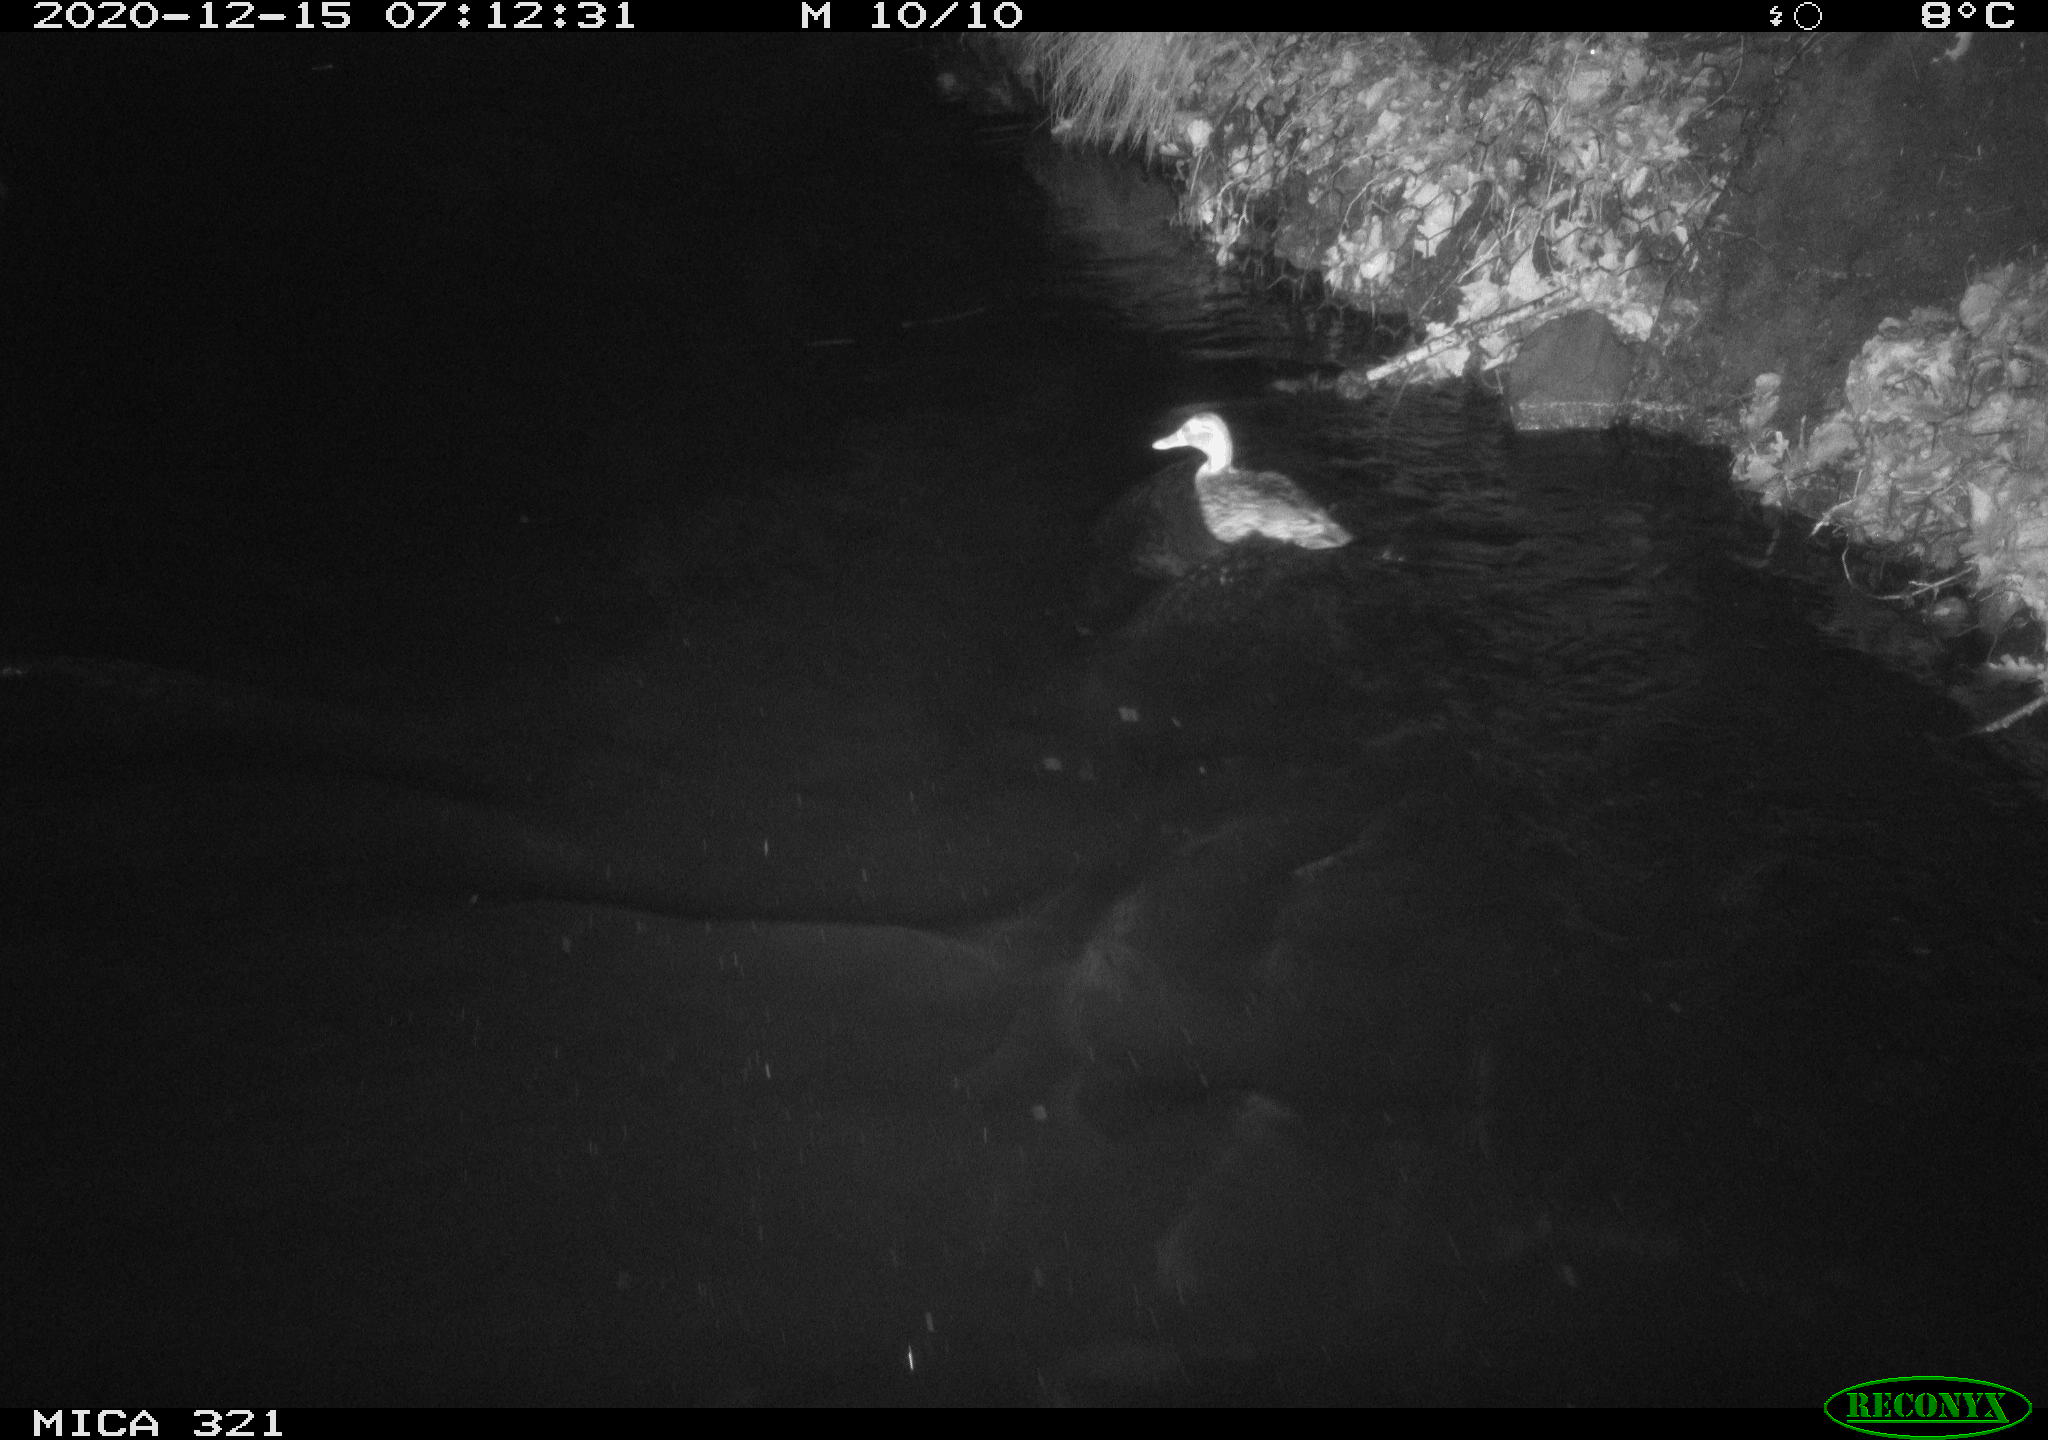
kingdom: Animalia
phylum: Chordata
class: Aves
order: Anseriformes
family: Anatidae
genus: Anas
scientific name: Anas platyrhynchos
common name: Mallard
